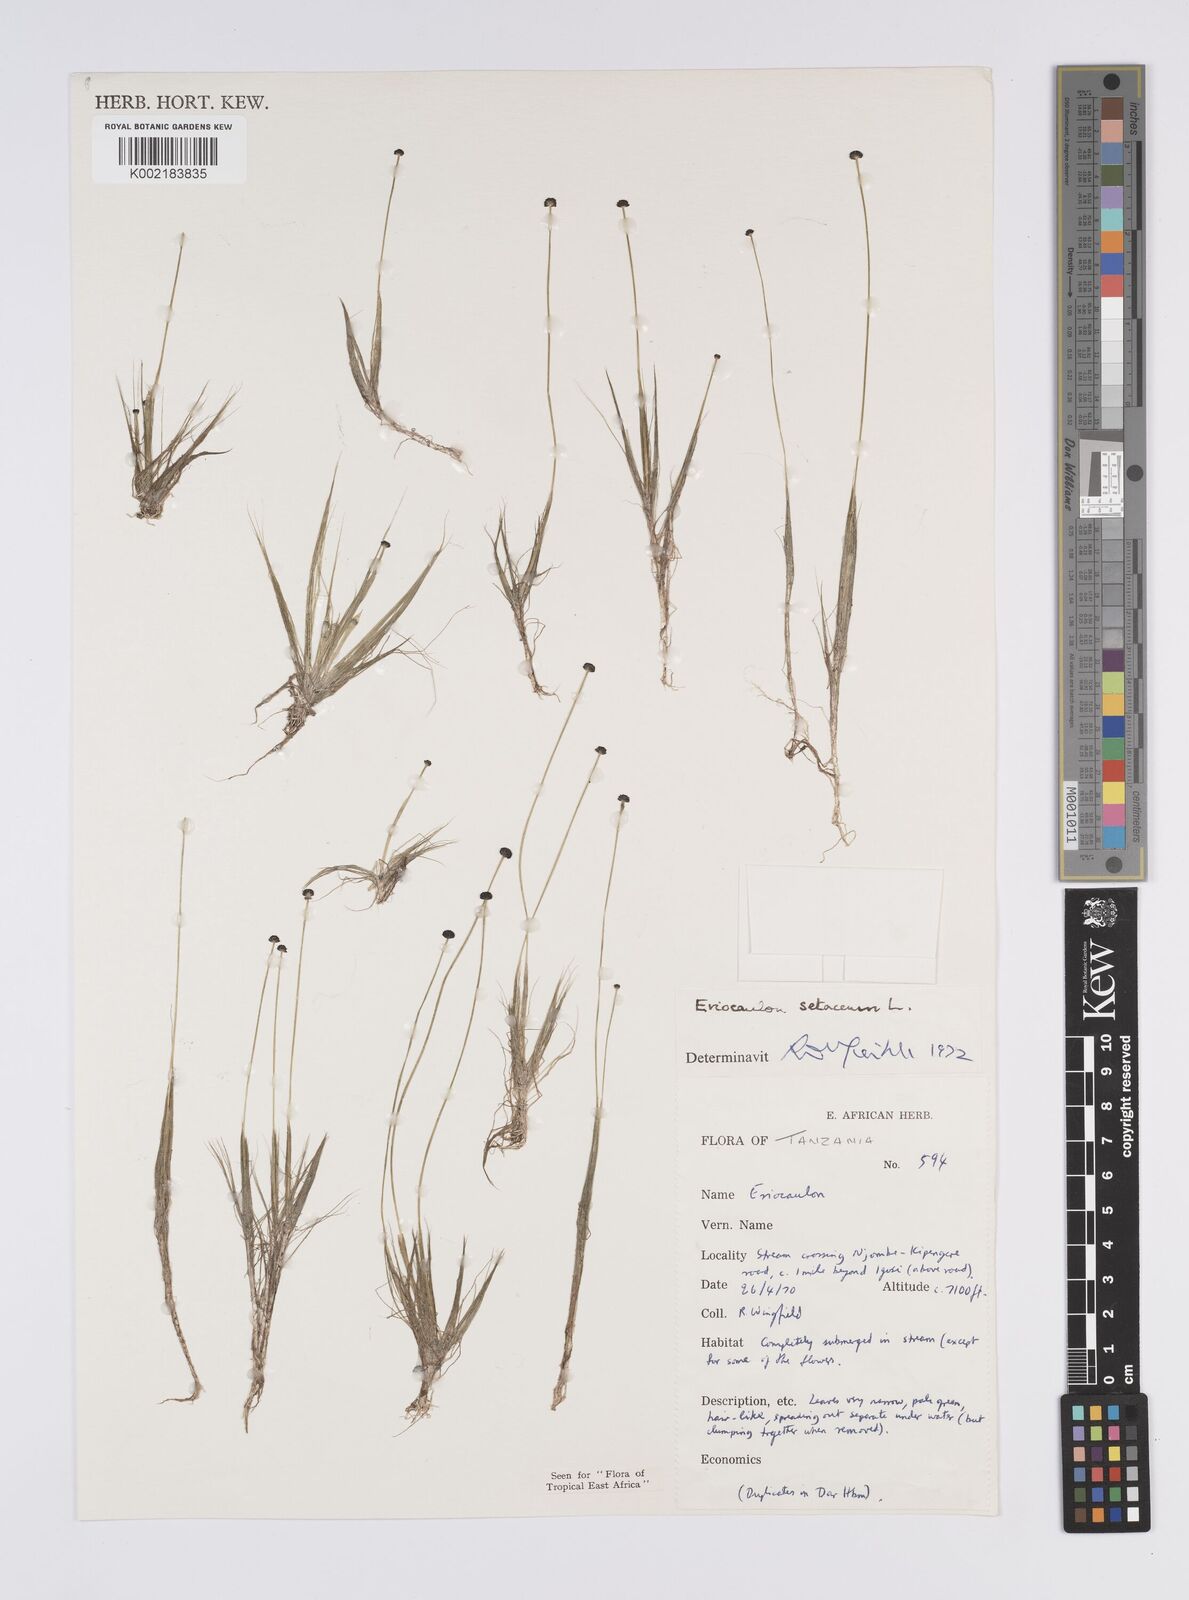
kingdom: Plantae
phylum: Tracheophyta
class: Liliopsida
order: Poales
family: Eriocaulaceae
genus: Eriocaulon
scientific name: Eriocaulon setaceum
